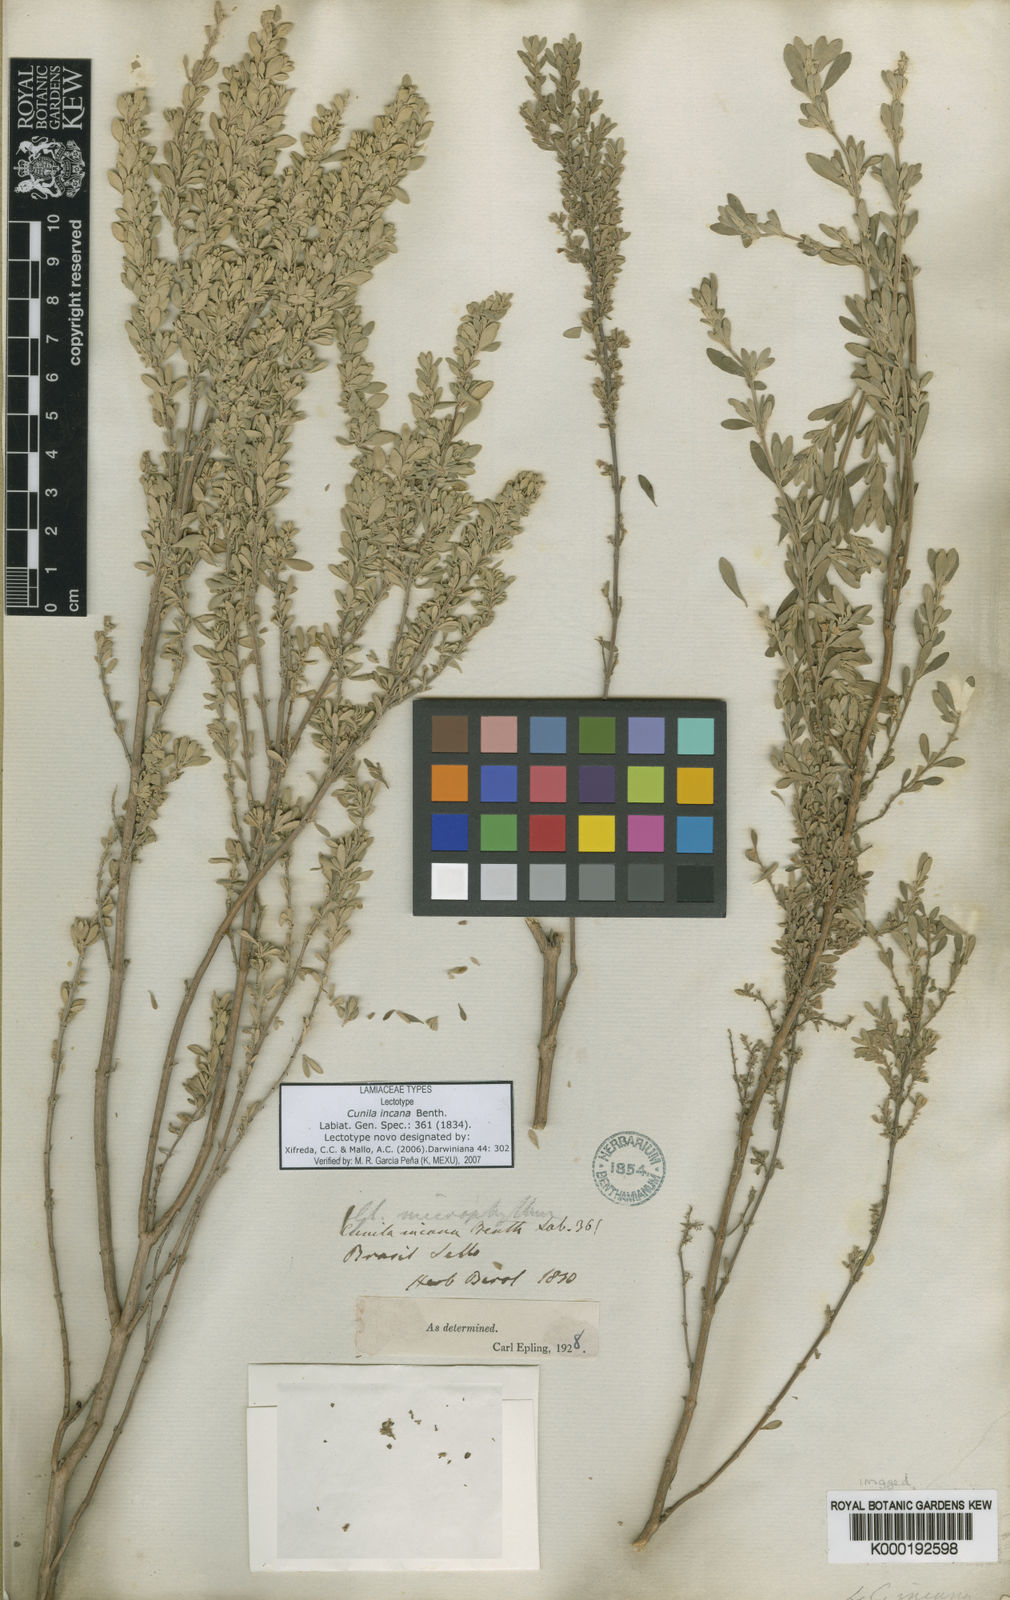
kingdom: Plantae
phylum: Tracheophyta
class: Magnoliopsida
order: Lamiales
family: Lamiaceae
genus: Cunila
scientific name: Cunila incana
